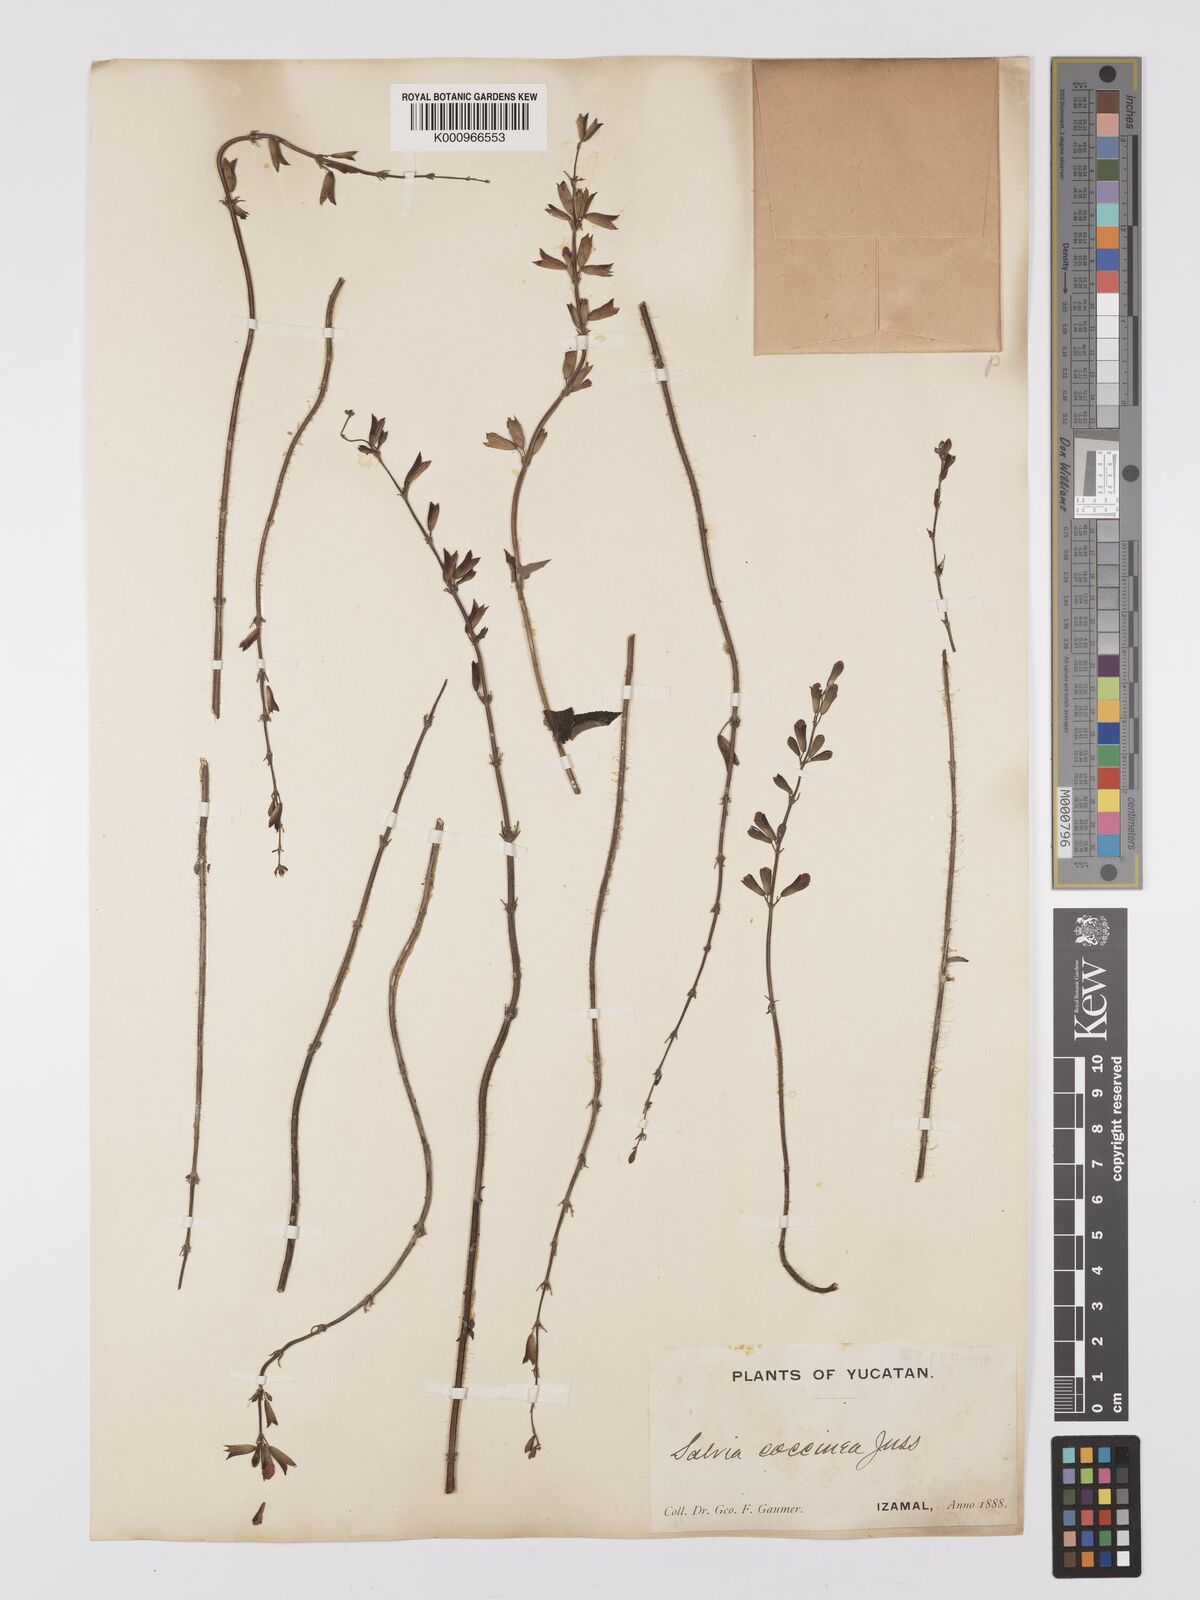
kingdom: Plantae
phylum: Tracheophyta
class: Magnoliopsida
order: Lamiales
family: Lamiaceae
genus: Salvia
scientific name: Salvia
